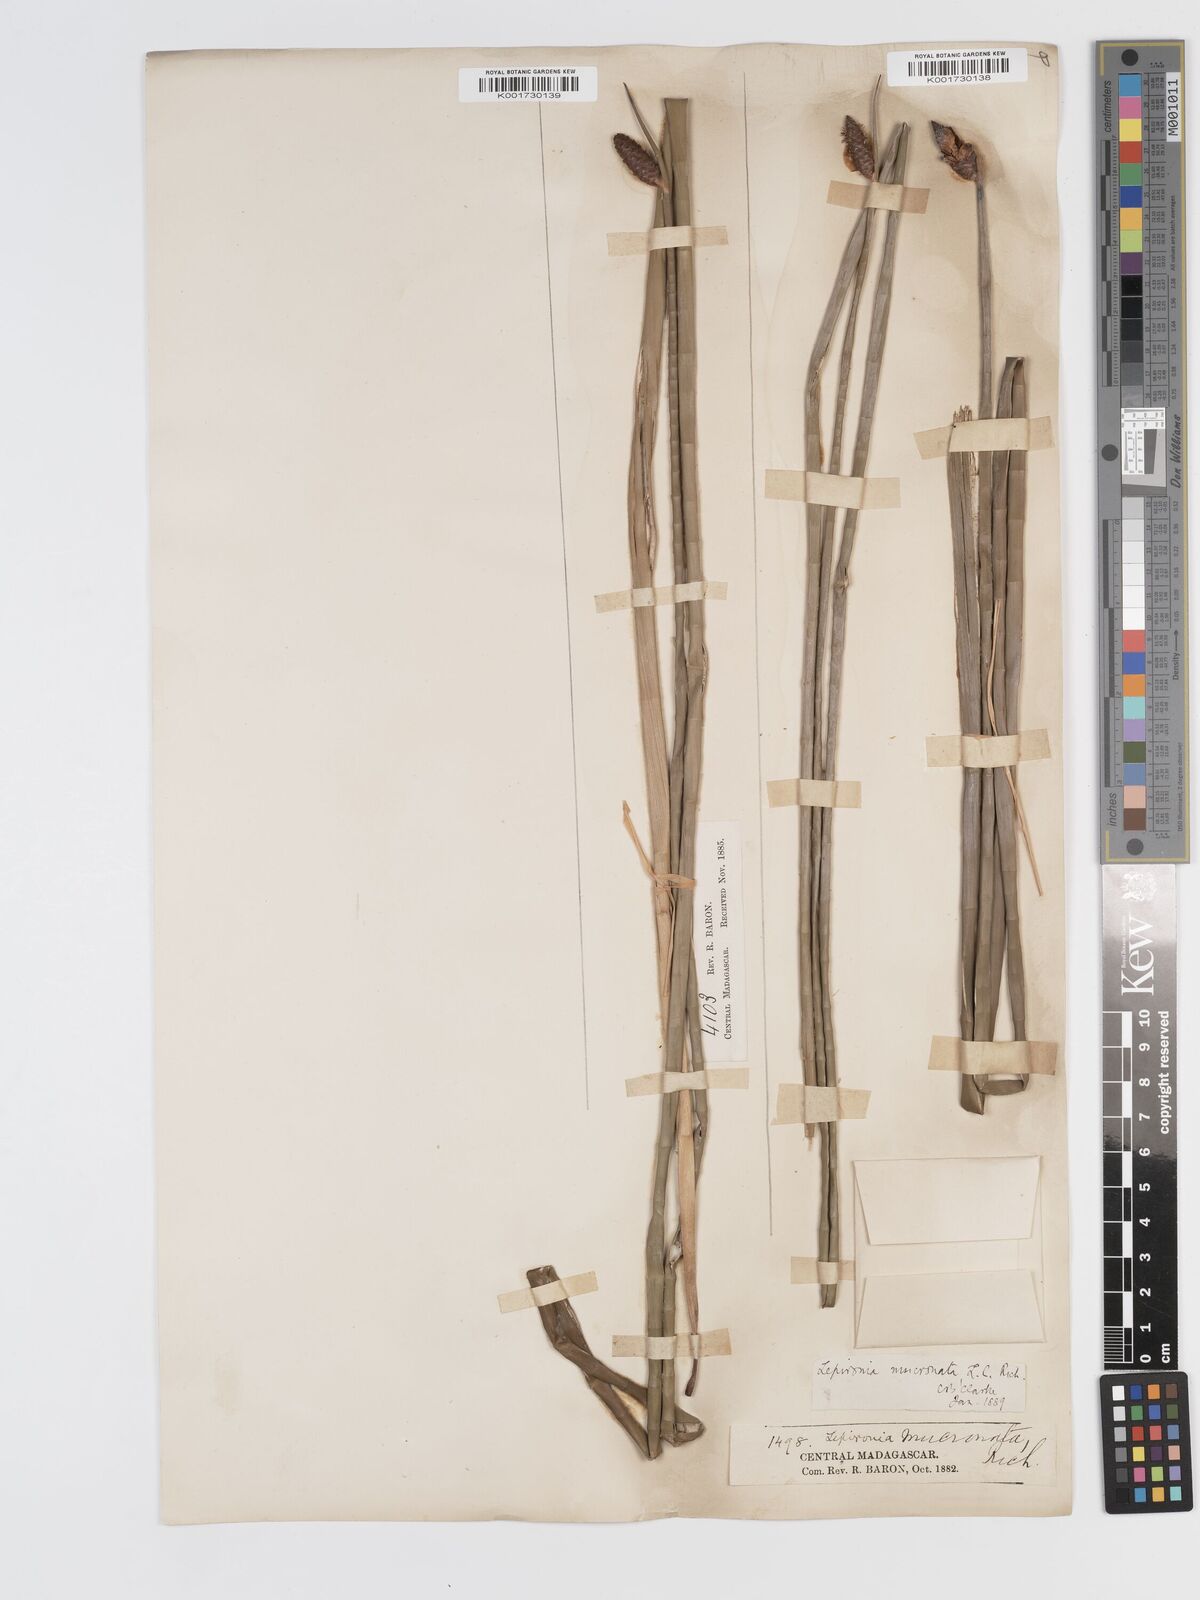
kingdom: Plantae
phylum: Tracheophyta
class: Liliopsida
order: Poales
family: Cyperaceae
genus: Lepironia
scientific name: Lepironia articulata
